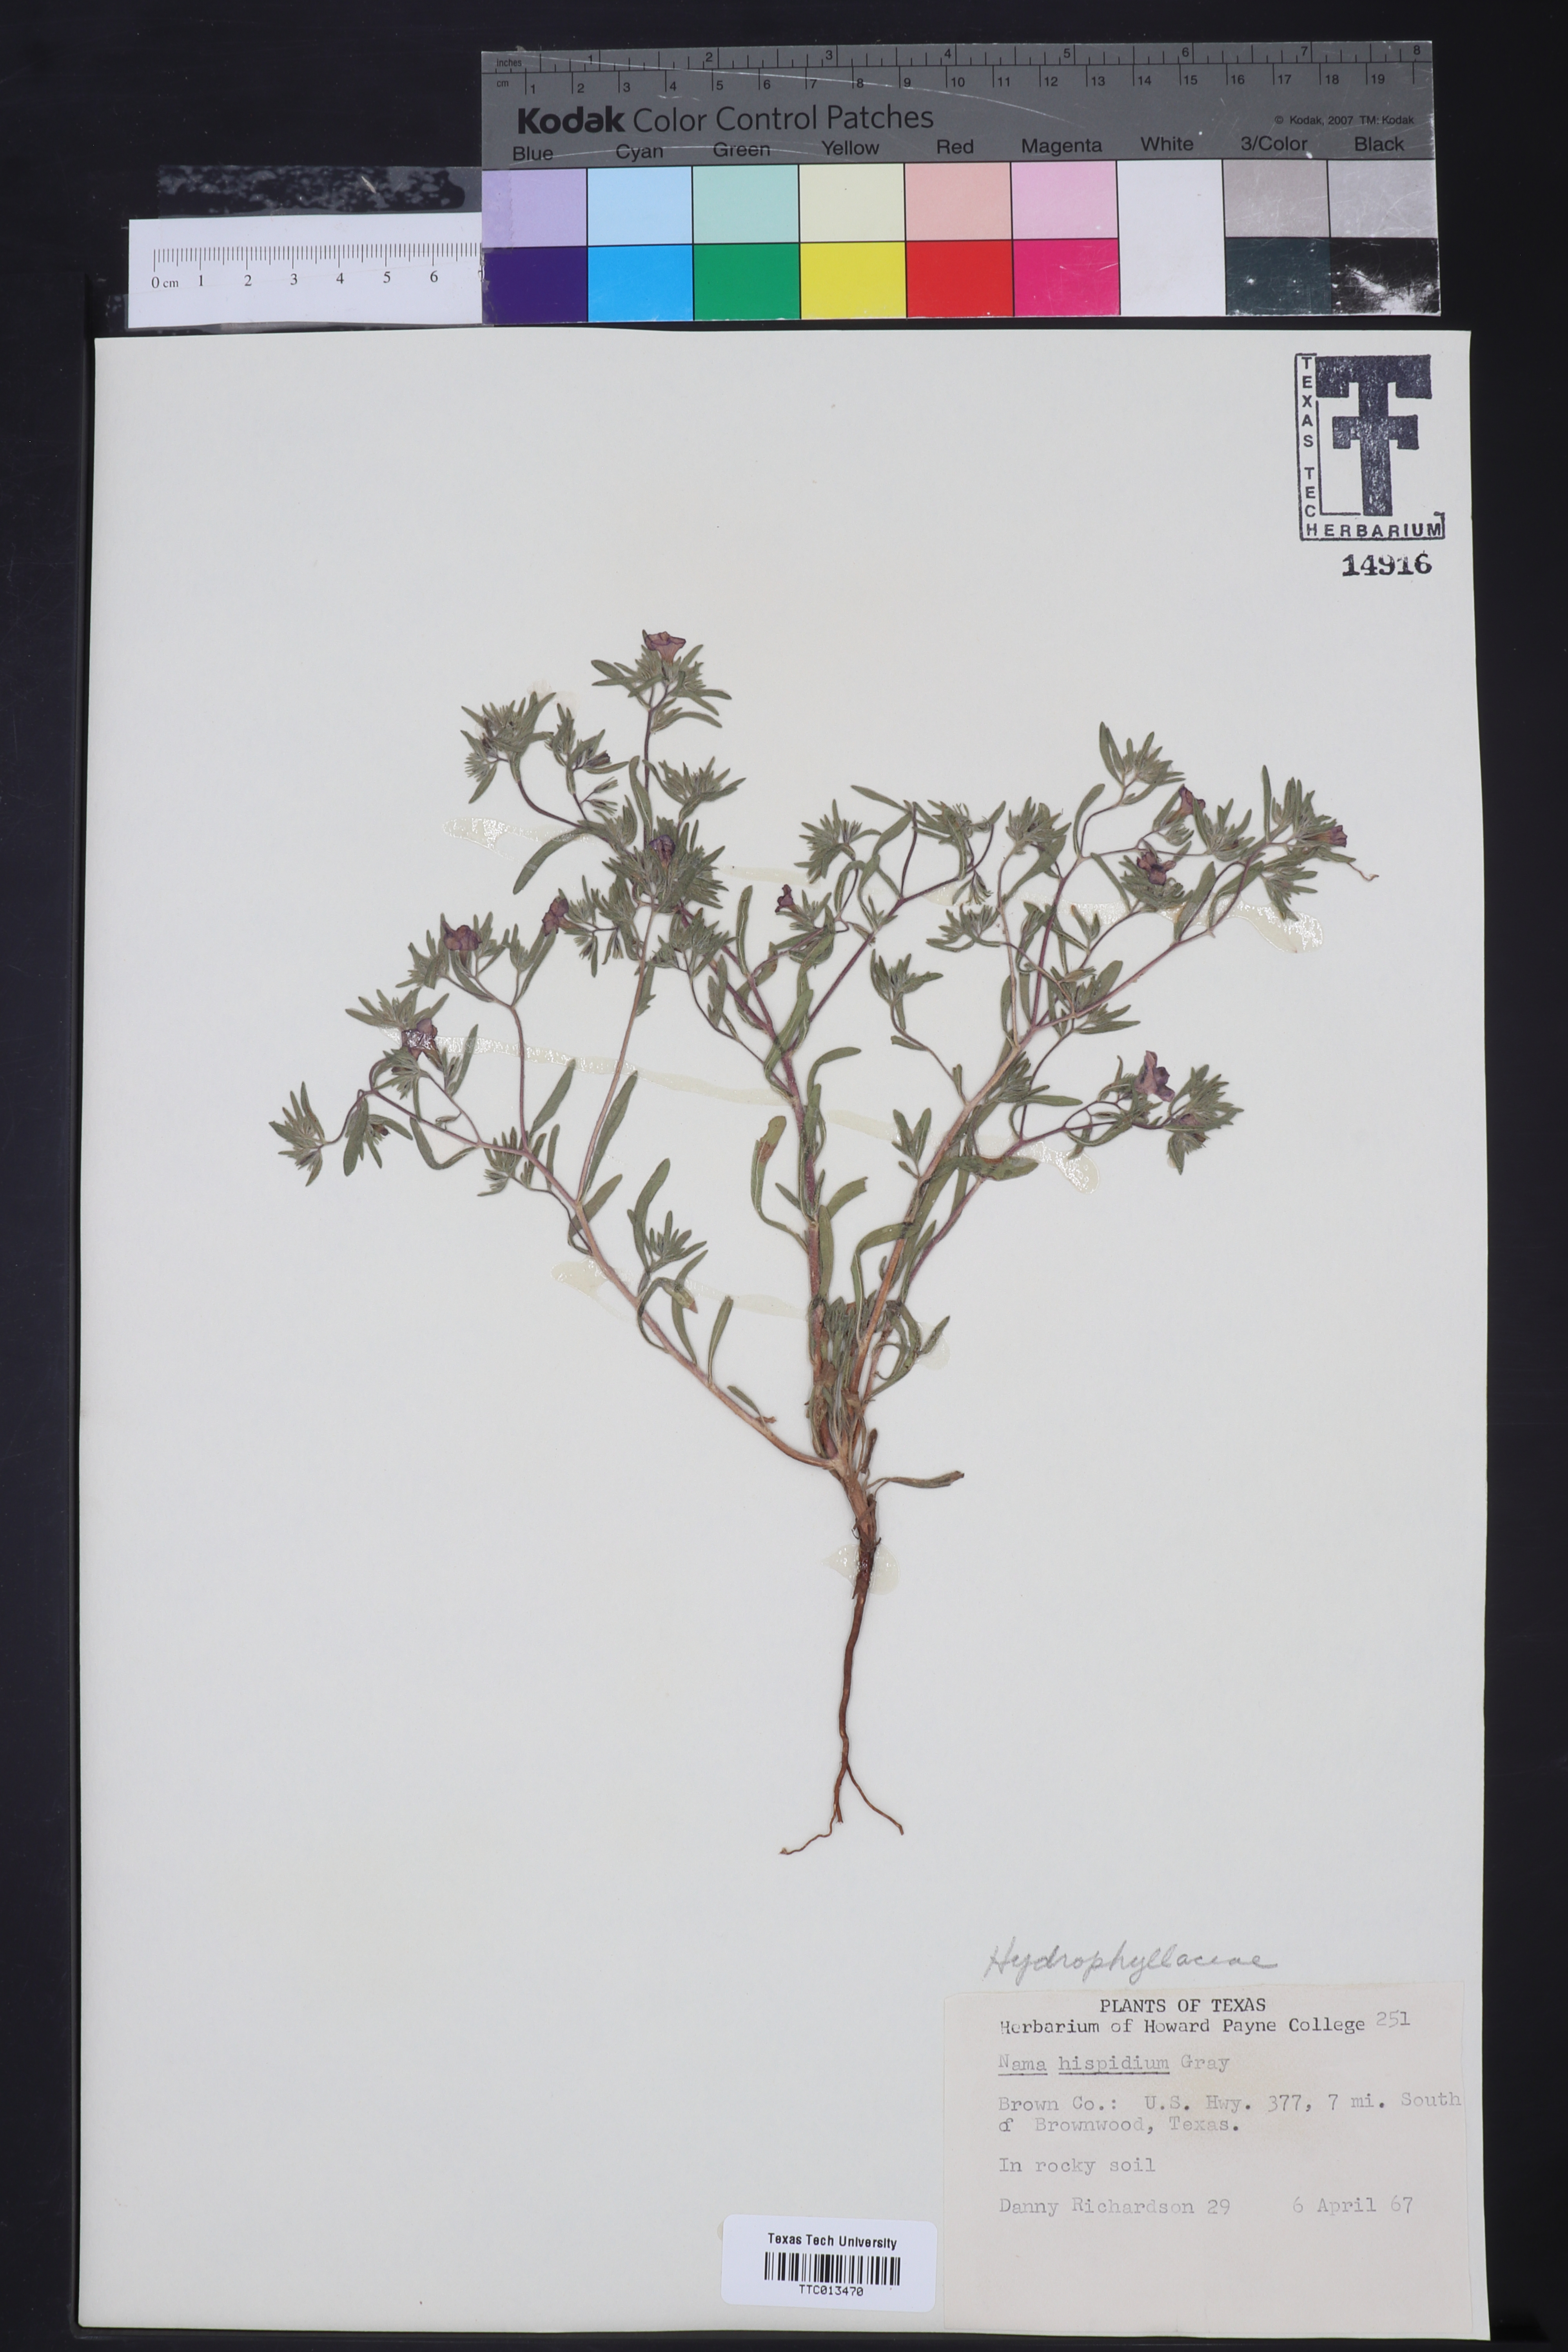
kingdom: Plantae
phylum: Tracheophyta
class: Magnoliopsida
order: Boraginales
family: Namaceae
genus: Nama
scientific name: Nama hispida
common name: Bristly nama
